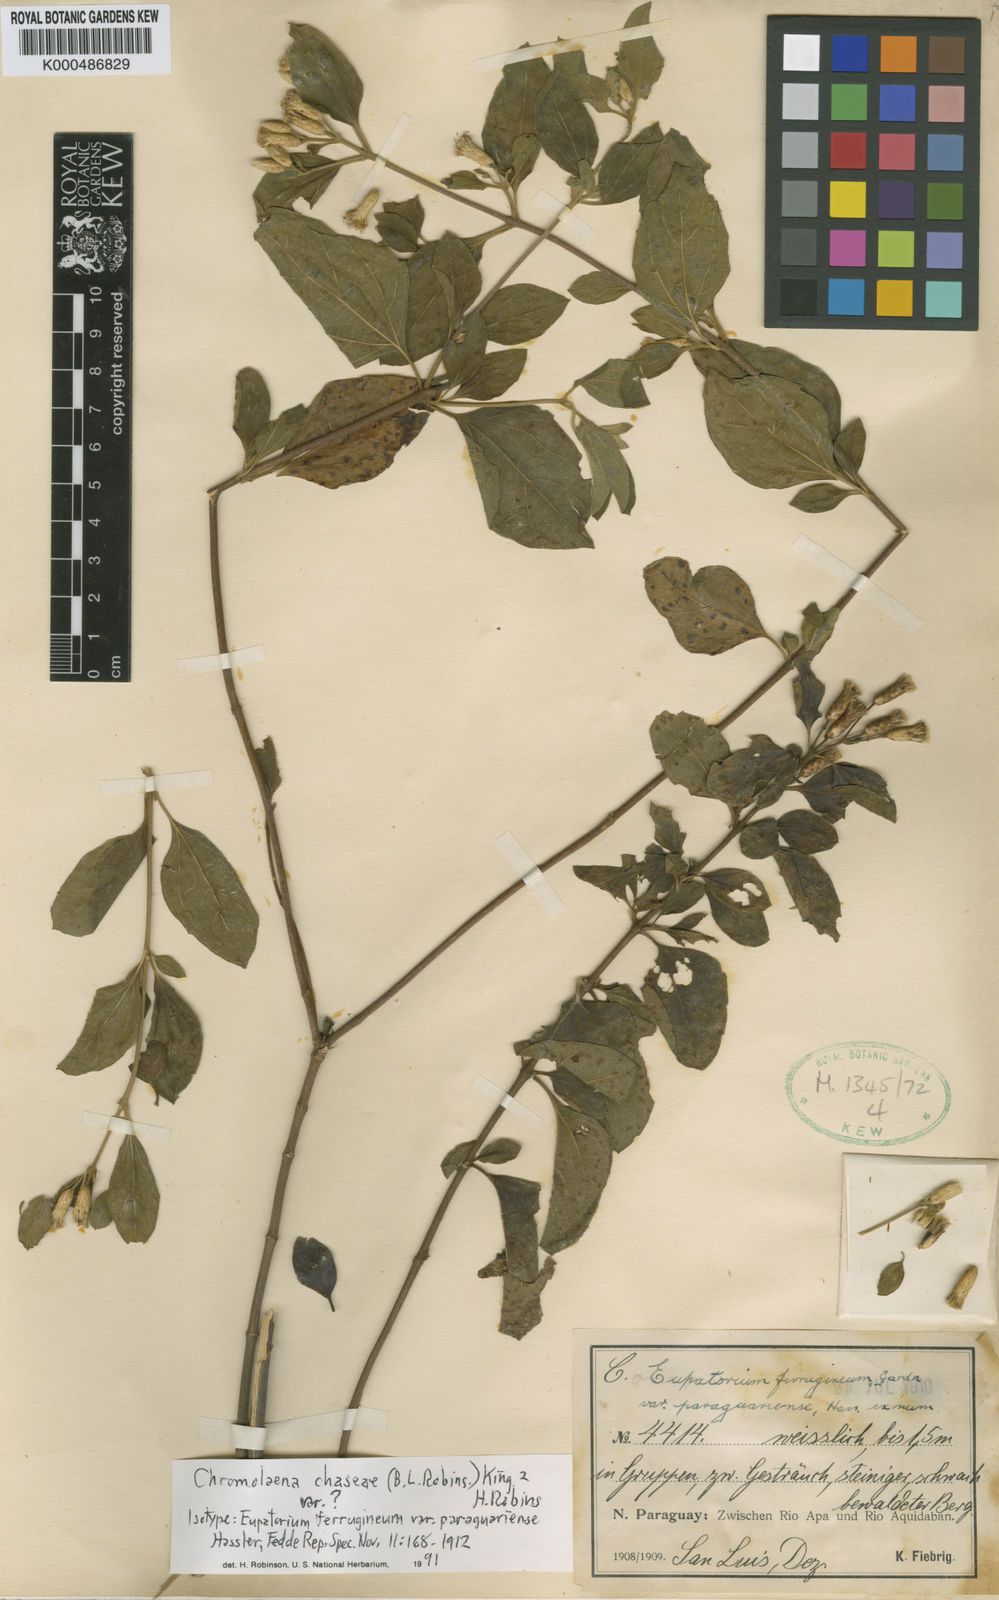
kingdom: Plantae
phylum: Tracheophyta
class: Magnoliopsida
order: Asterales
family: Asteraceae
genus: Chromolaena
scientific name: Chromolaena chaseae
